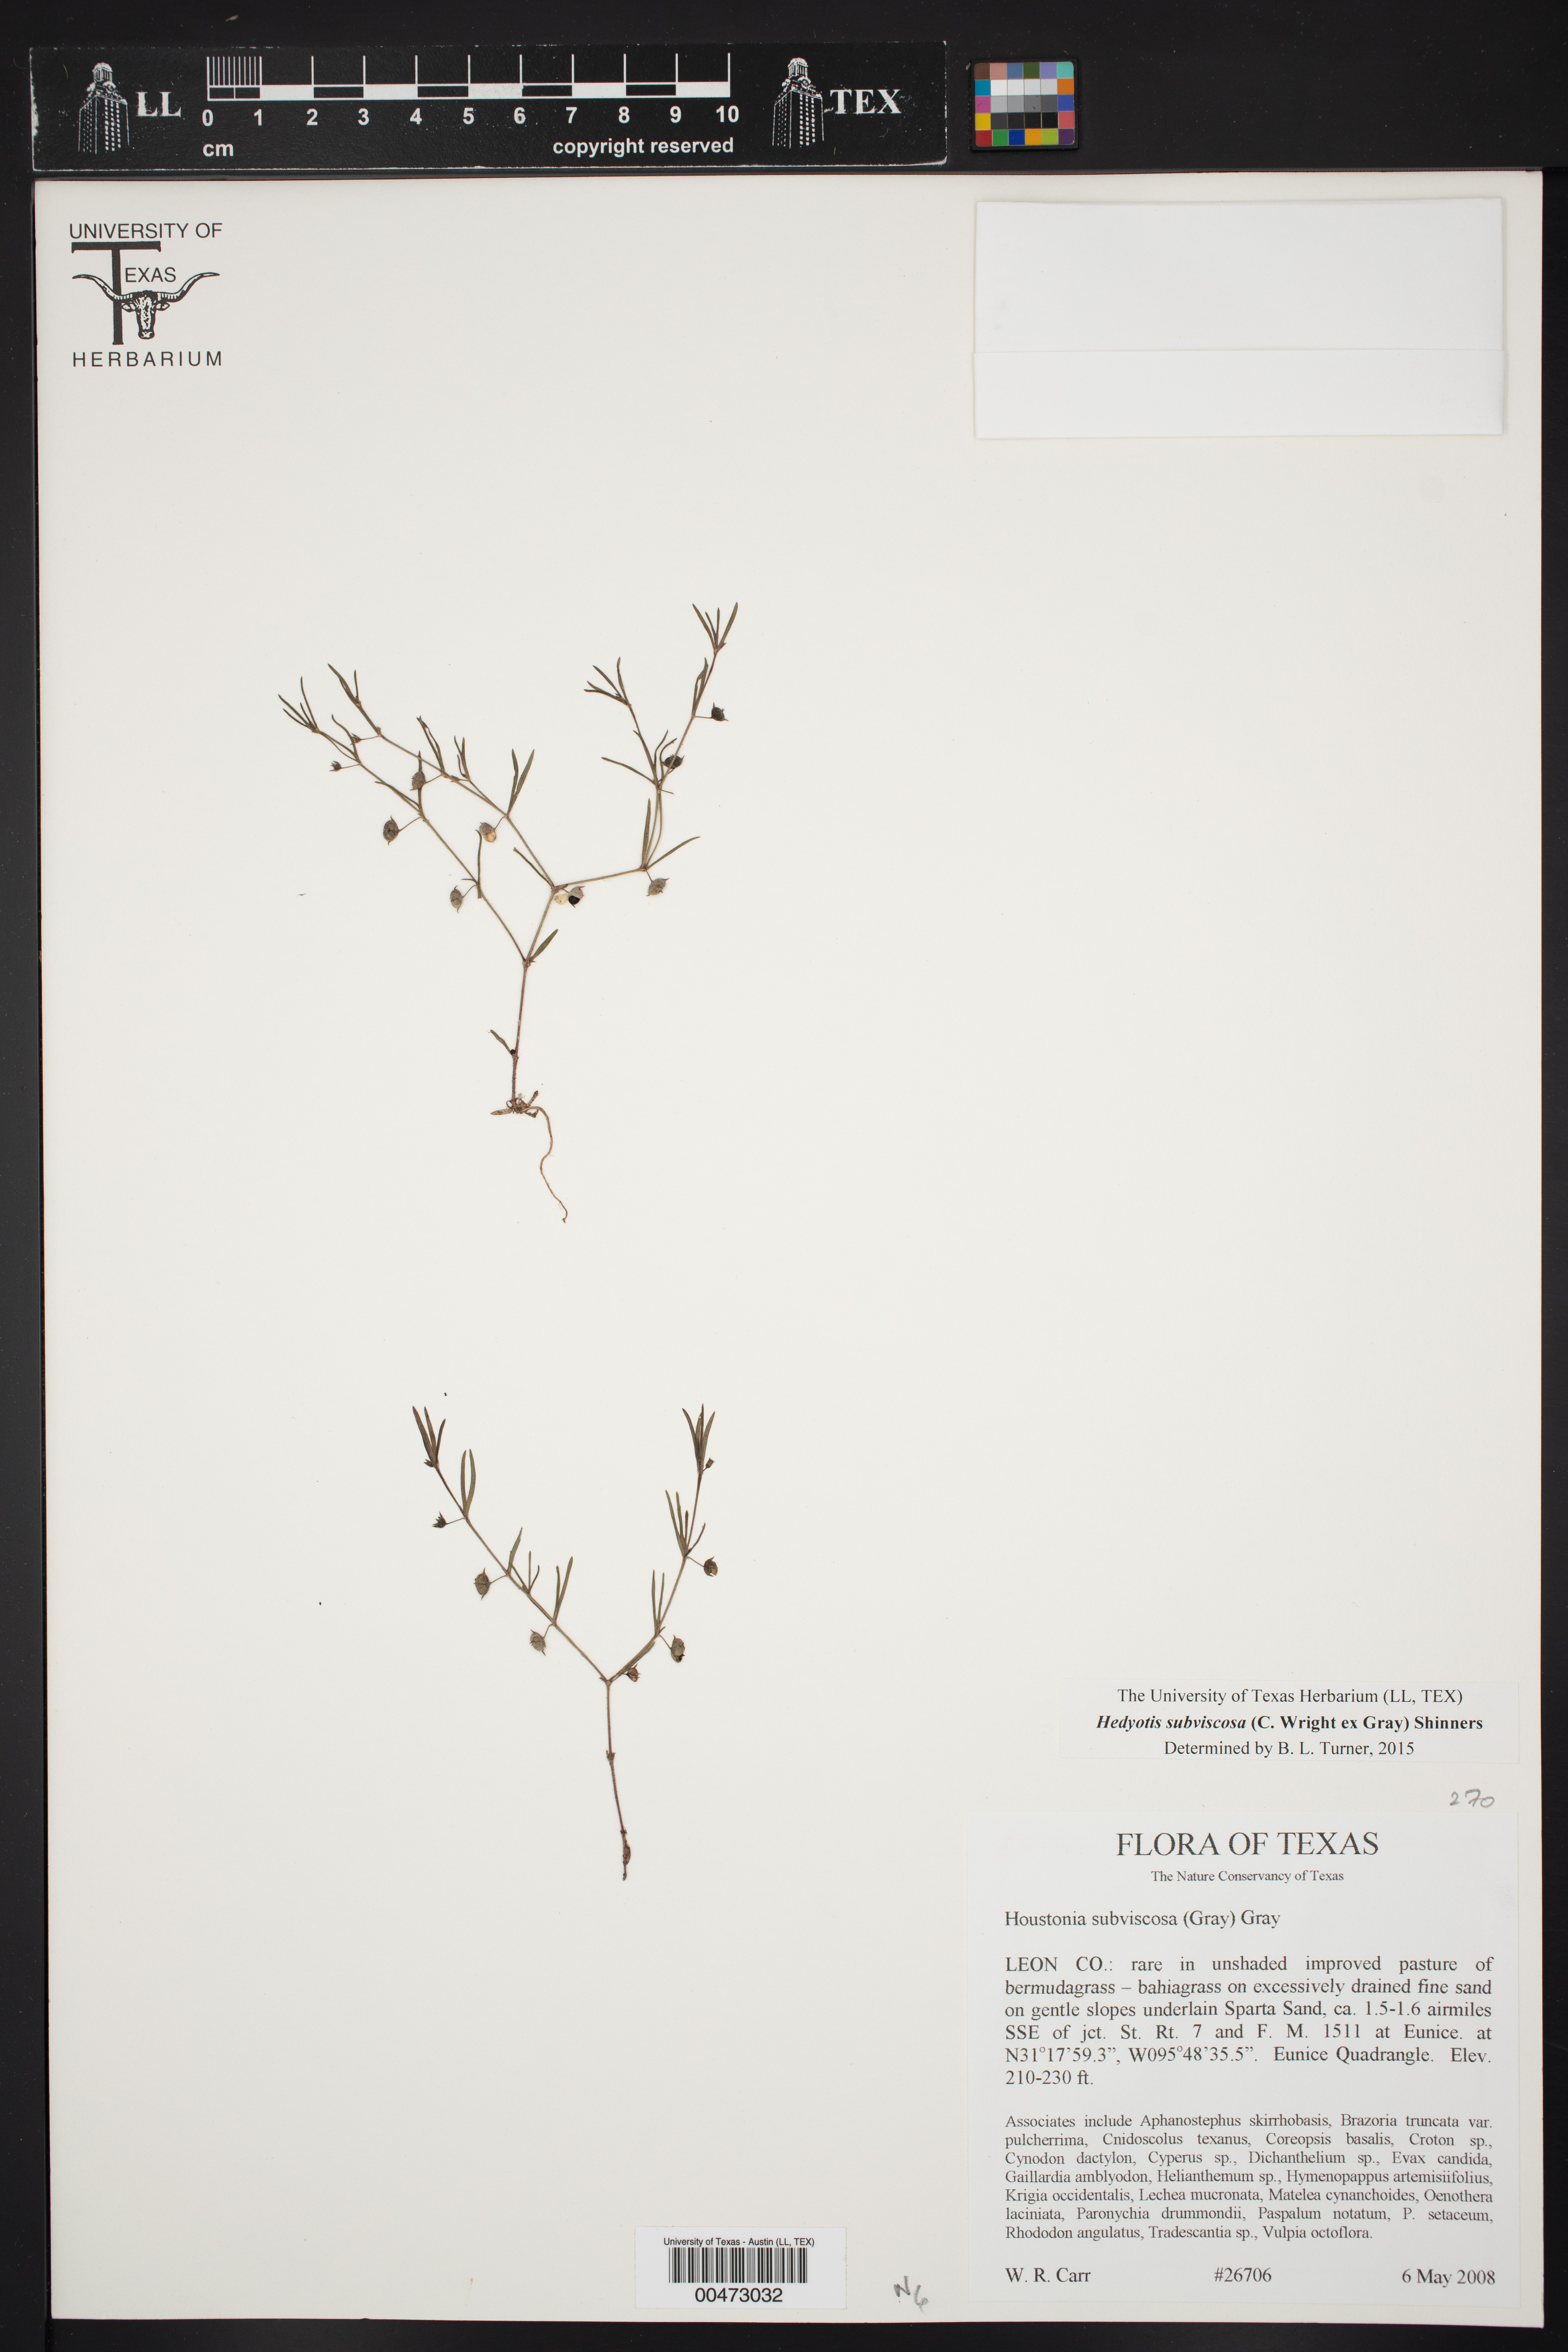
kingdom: Plantae
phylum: Tracheophyta
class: Magnoliopsida
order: Gentianales
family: Rubiaceae
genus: Houstonia
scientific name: Houstonia subviscosa
